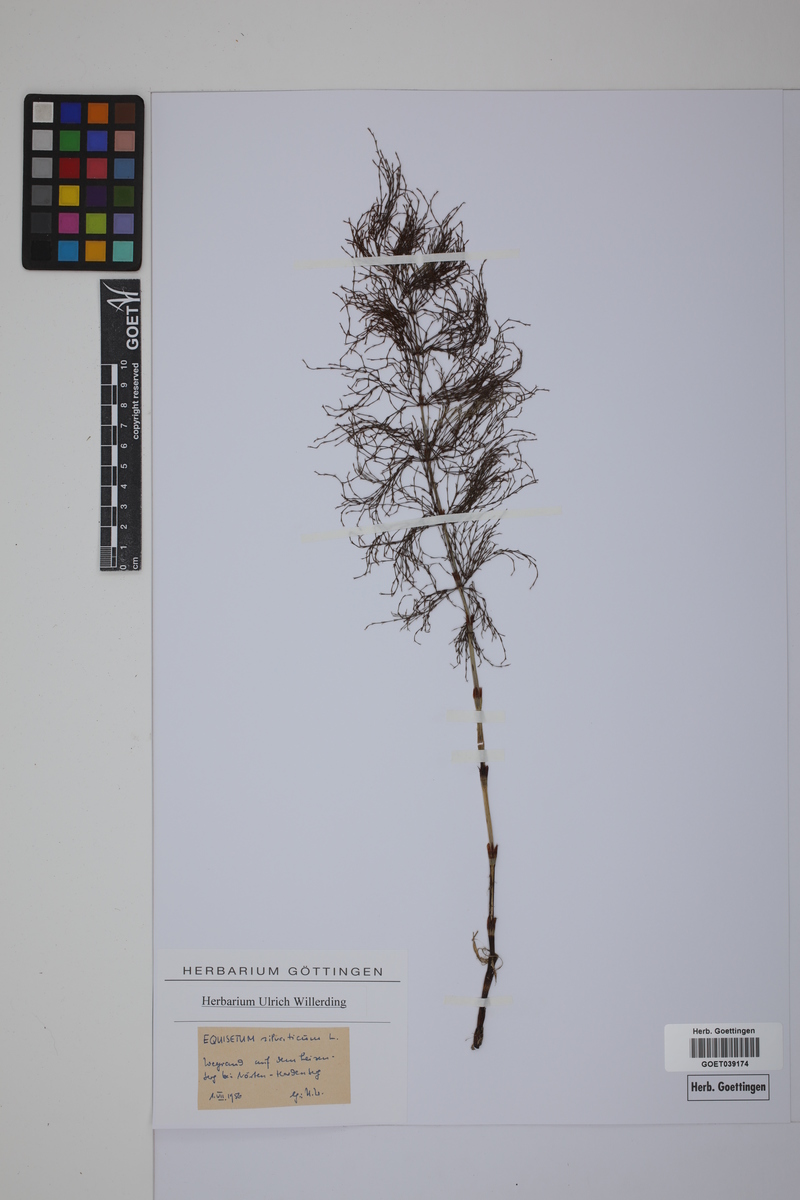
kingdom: Plantae
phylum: Tracheophyta
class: Polypodiopsida
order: Equisetales
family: Equisetaceae
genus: Equisetum
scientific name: Equisetum sylvaticum
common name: Wood horsetail
